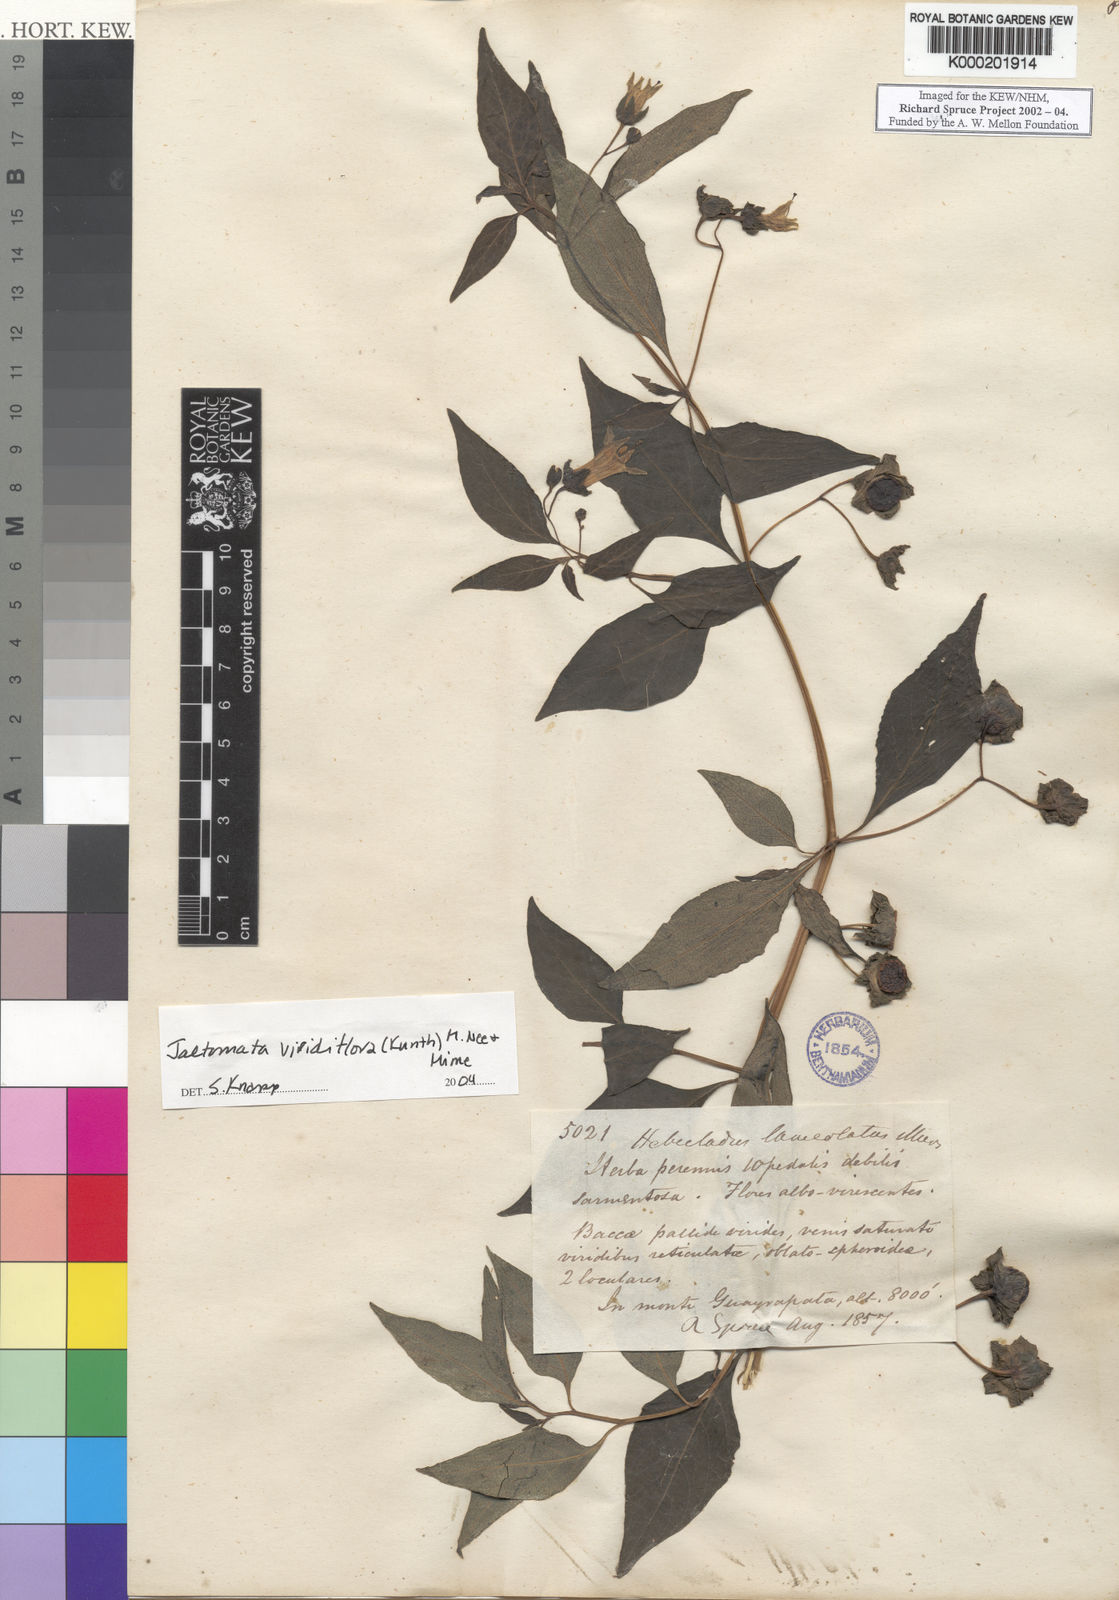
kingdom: Plantae
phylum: Tracheophyta
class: Magnoliopsida
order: Solanales
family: Solanaceae
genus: Jaltomata
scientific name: Jaltomata viridiflora
